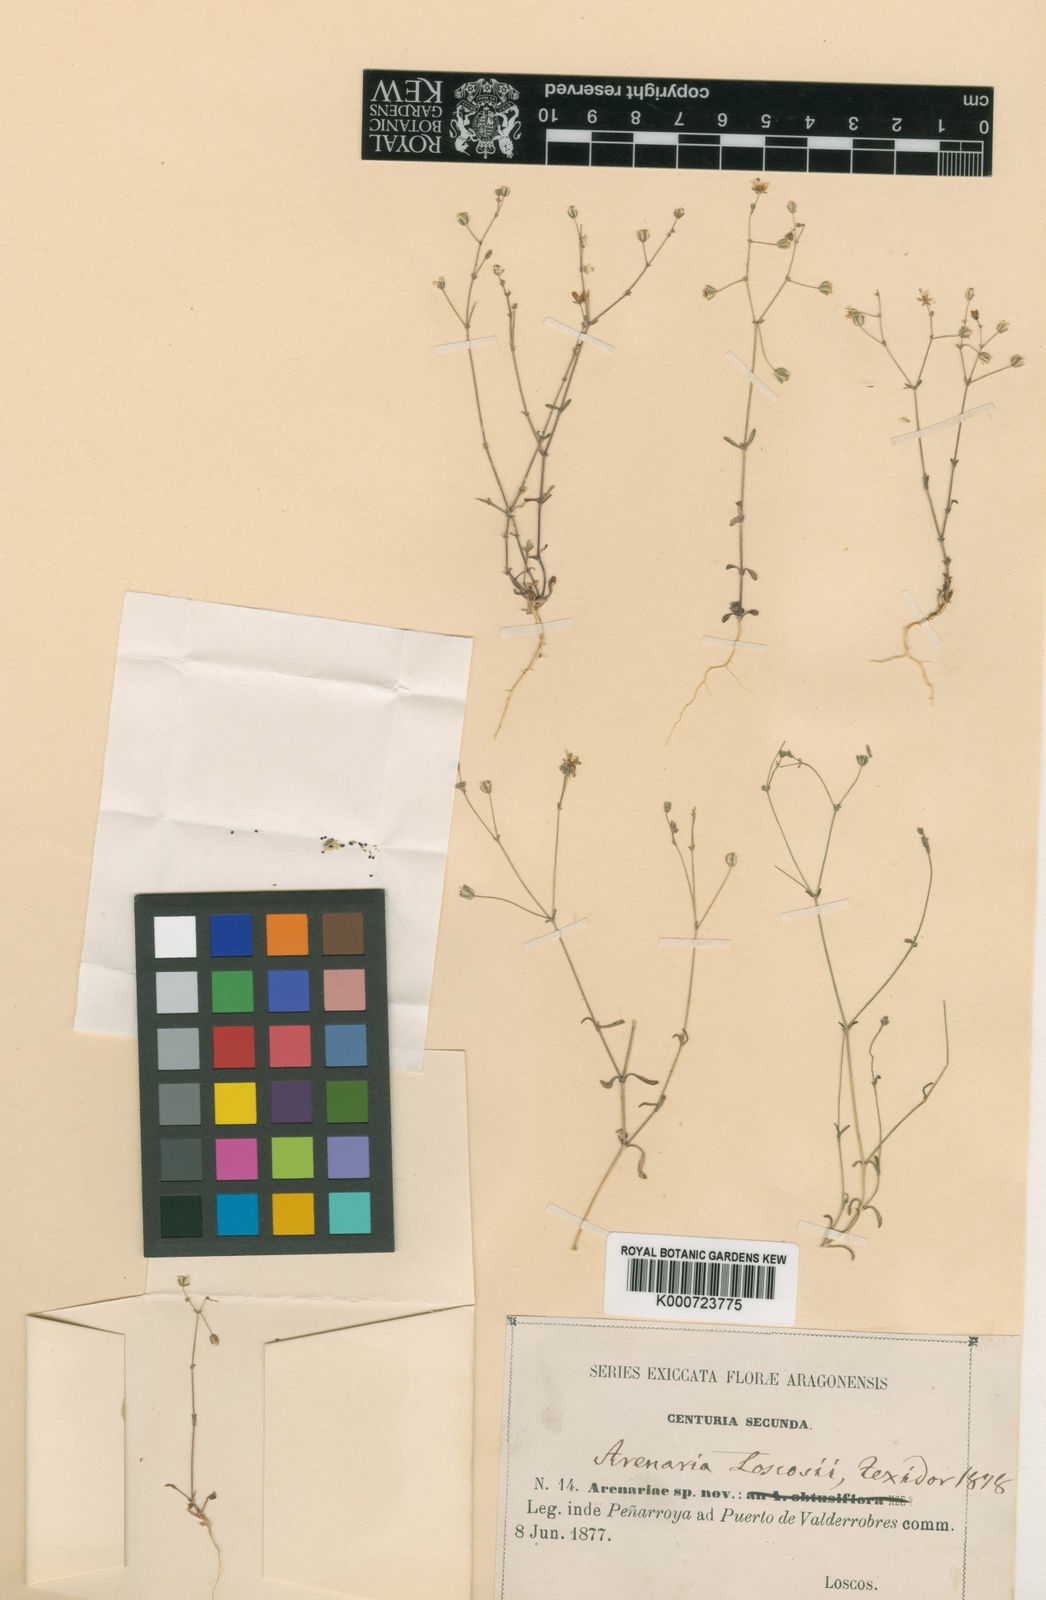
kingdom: Plantae
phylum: Tracheophyta
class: Magnoliopsida
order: Caryophyllales
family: Caryophyllaceae
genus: Arenaria
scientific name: Arenaria conimbricensis
